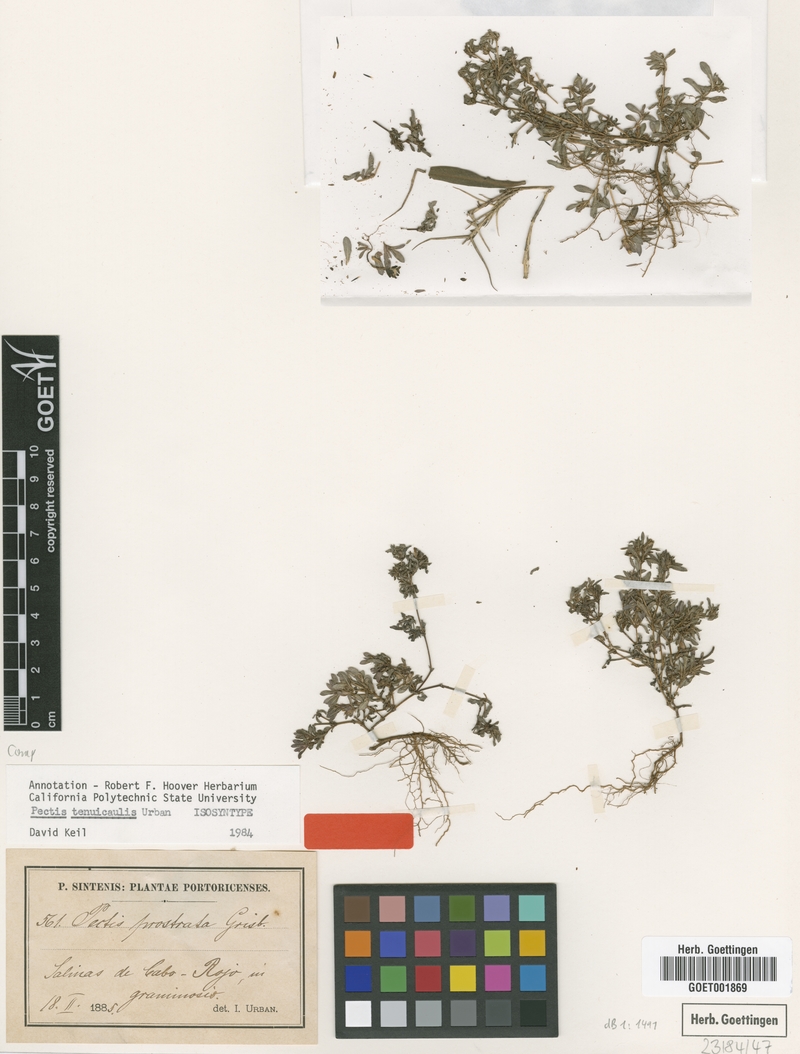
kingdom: Plantae
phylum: Tracheophyta
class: Magnoliopsida
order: Asterales
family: Asteraceae
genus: Pectis
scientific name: Pectis tenuicaulis
